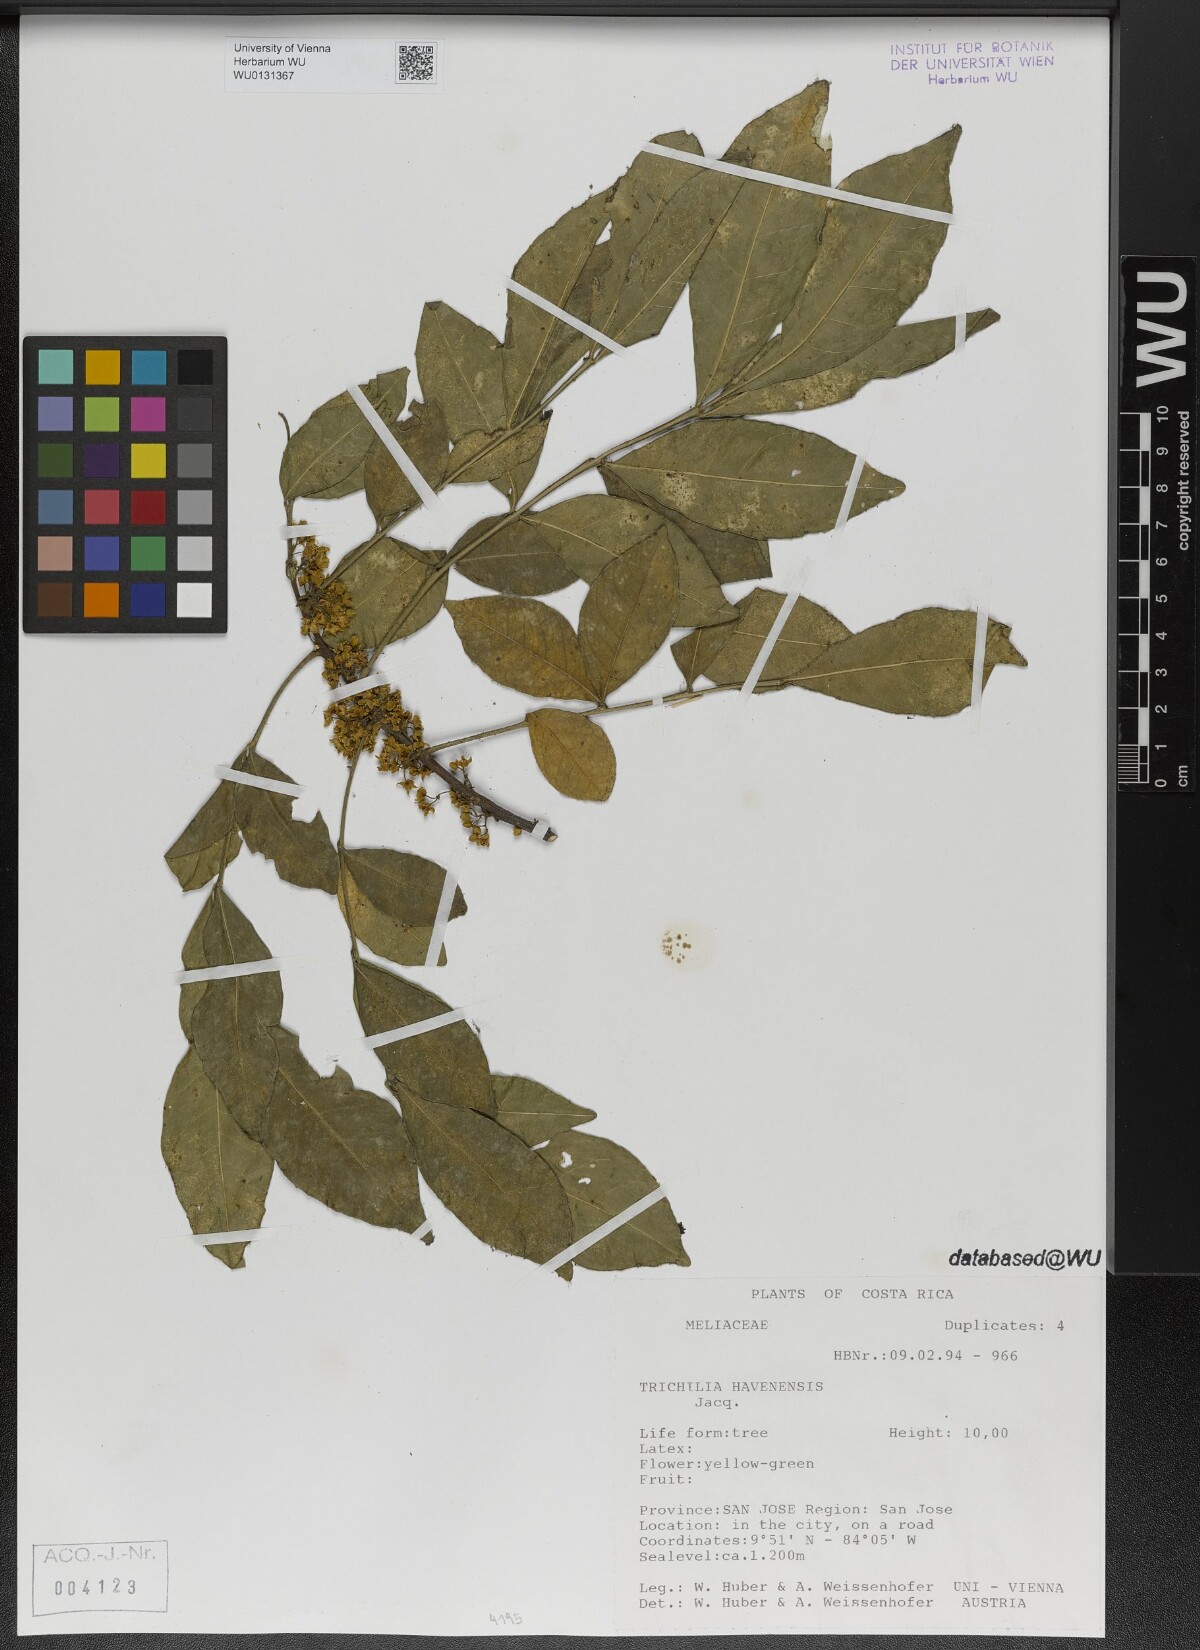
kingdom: Plantae
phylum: Tracheophyta
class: Magnoliopsida
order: Sapindales
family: Meliaceae
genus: Trichilia
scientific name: Trichilia havanensis
